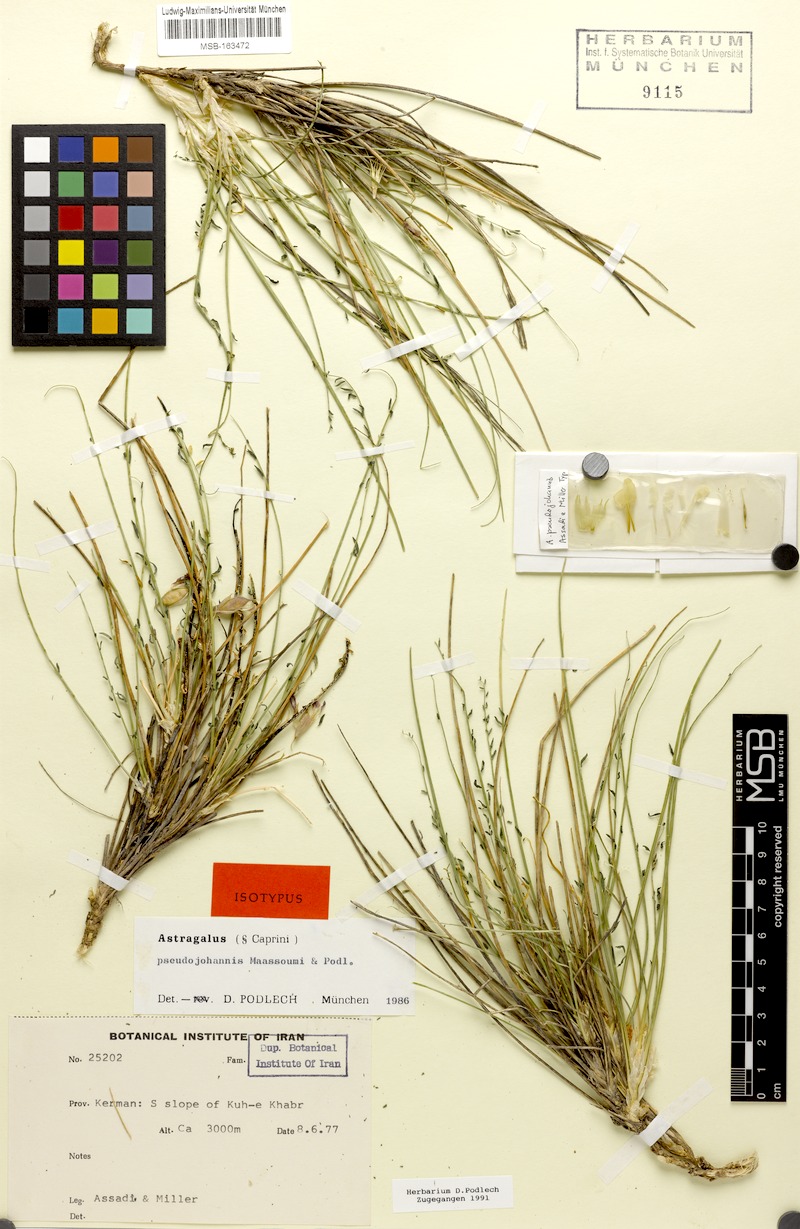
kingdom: Plantae
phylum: Tracheophyta
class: Magnoliopsida
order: Fabales
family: Fabaceae
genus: Astragalus
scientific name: Astragalus pseudojohannis
